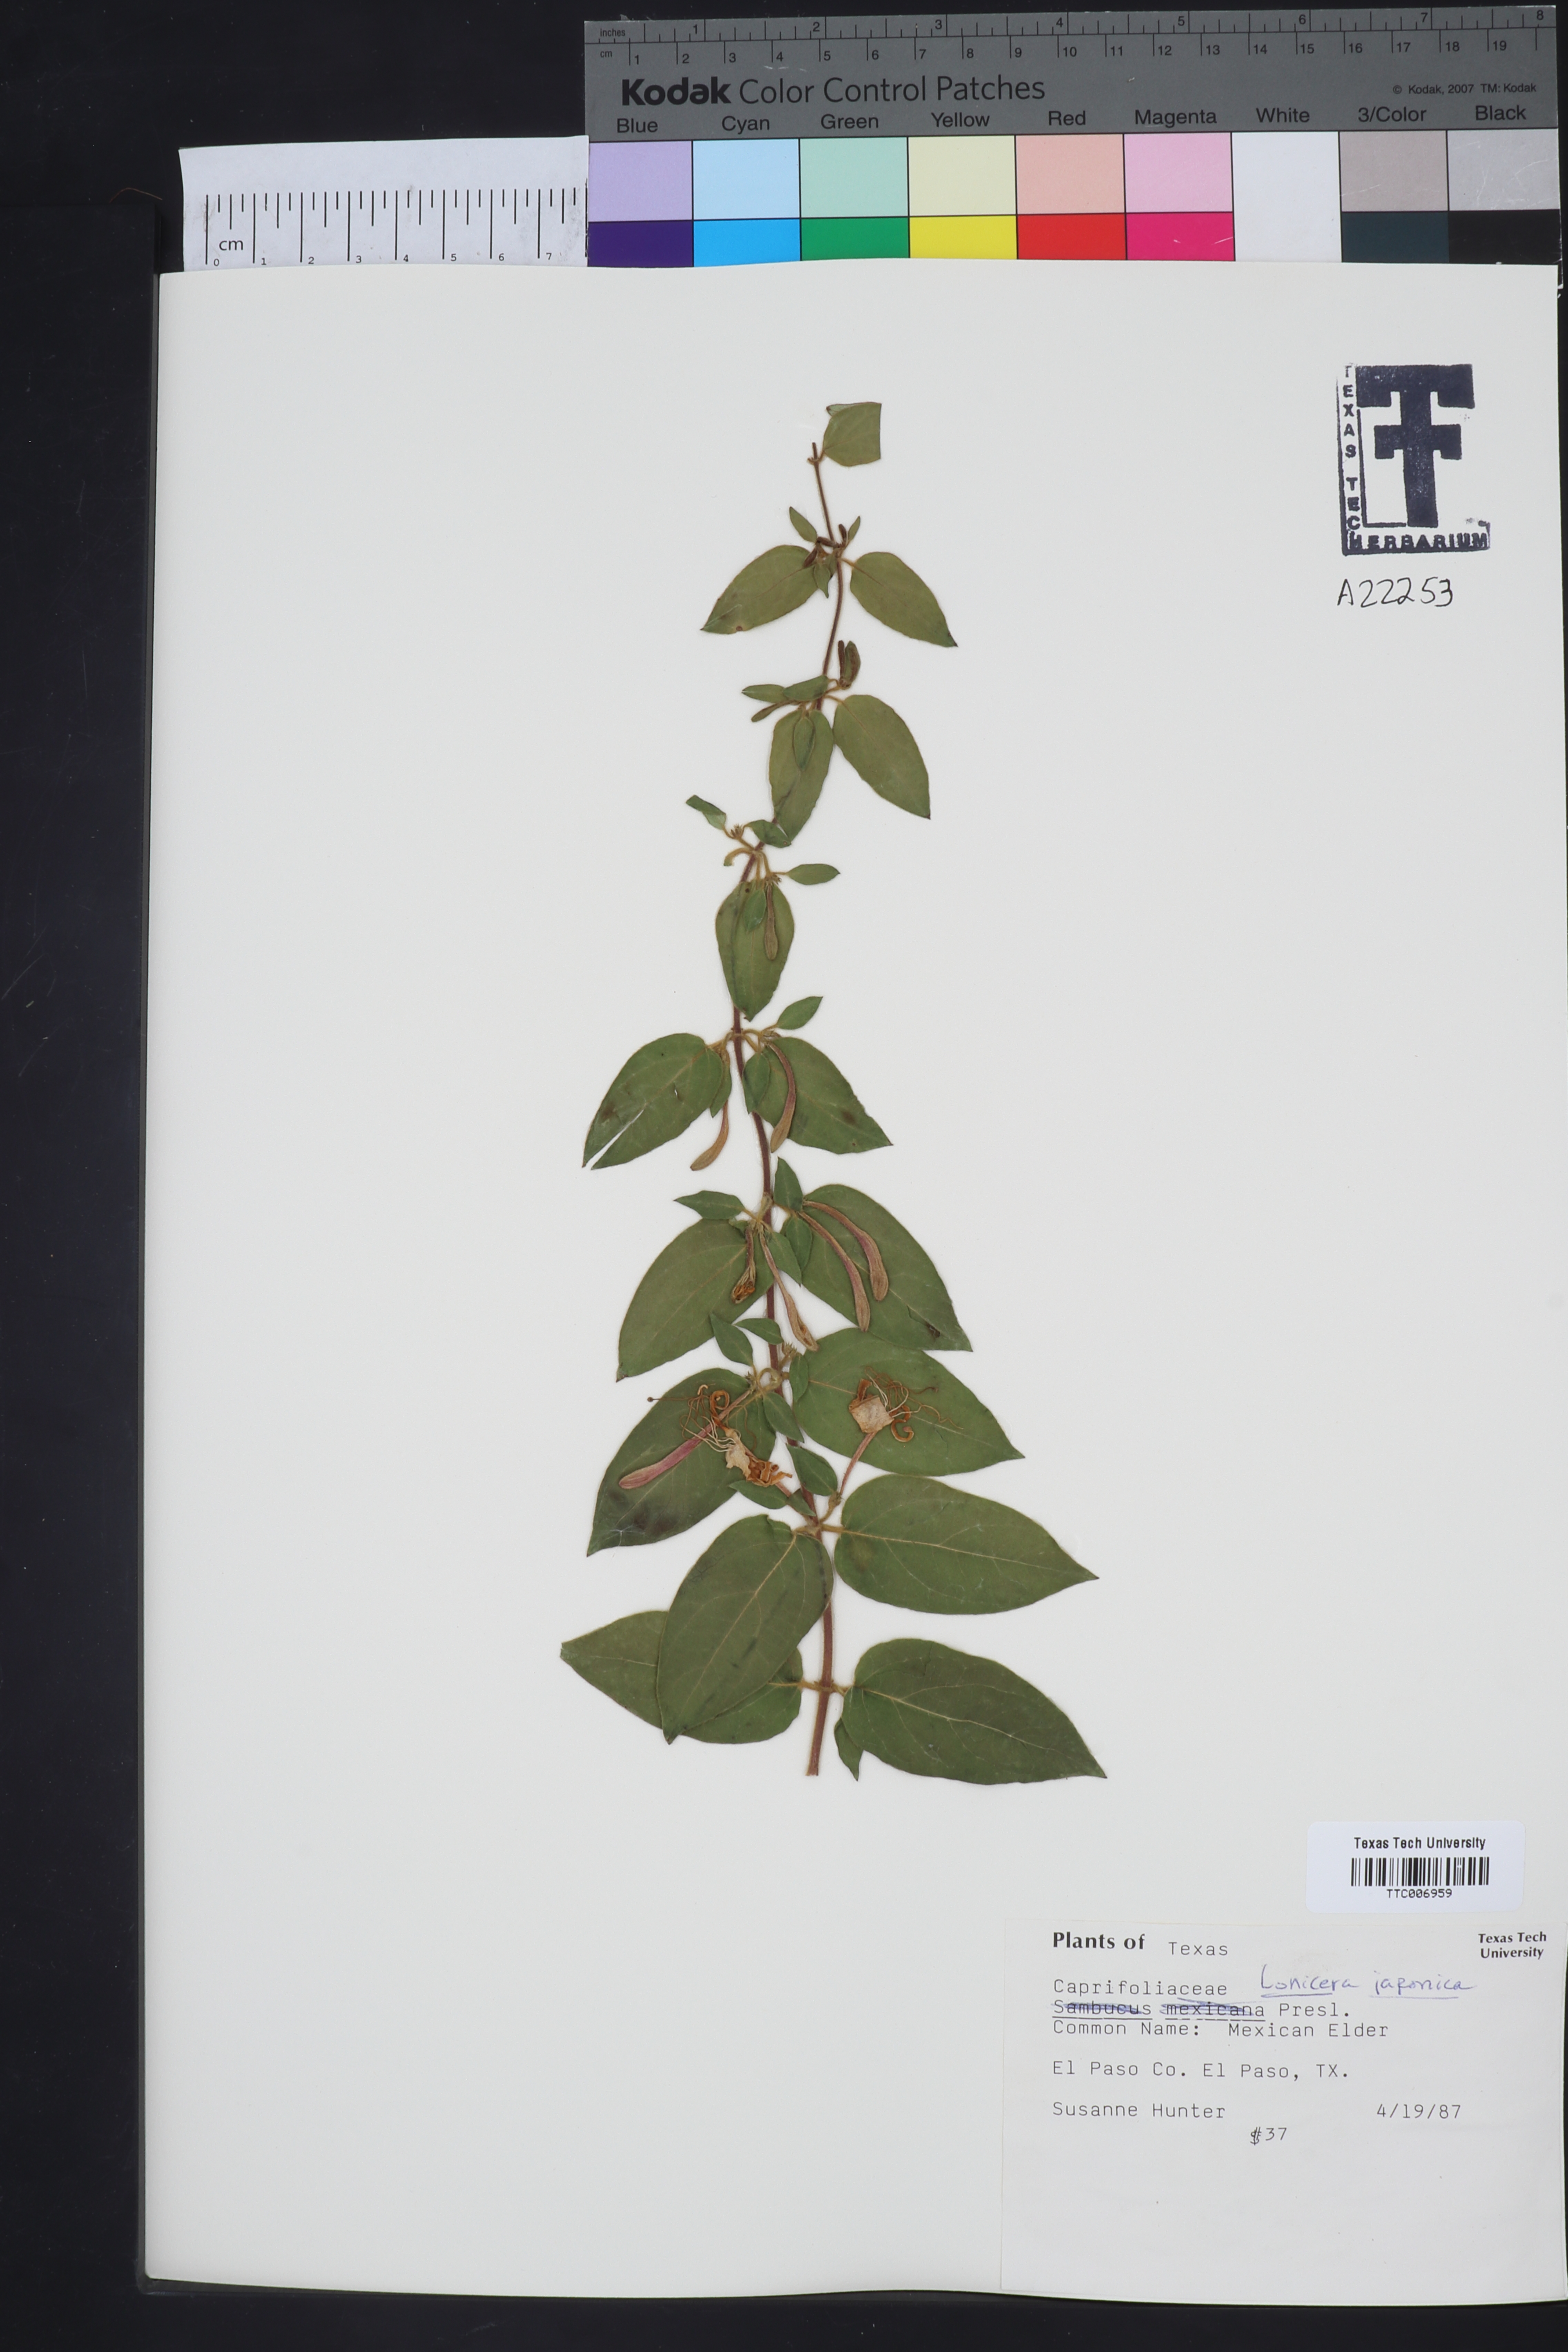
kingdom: Plantae
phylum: Tracheophyta
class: Magnoliopsida
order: Dipsacales
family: Caprifoliaceae
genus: Lonicera
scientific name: Lonicera japonica
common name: Japanese honeysuckle
